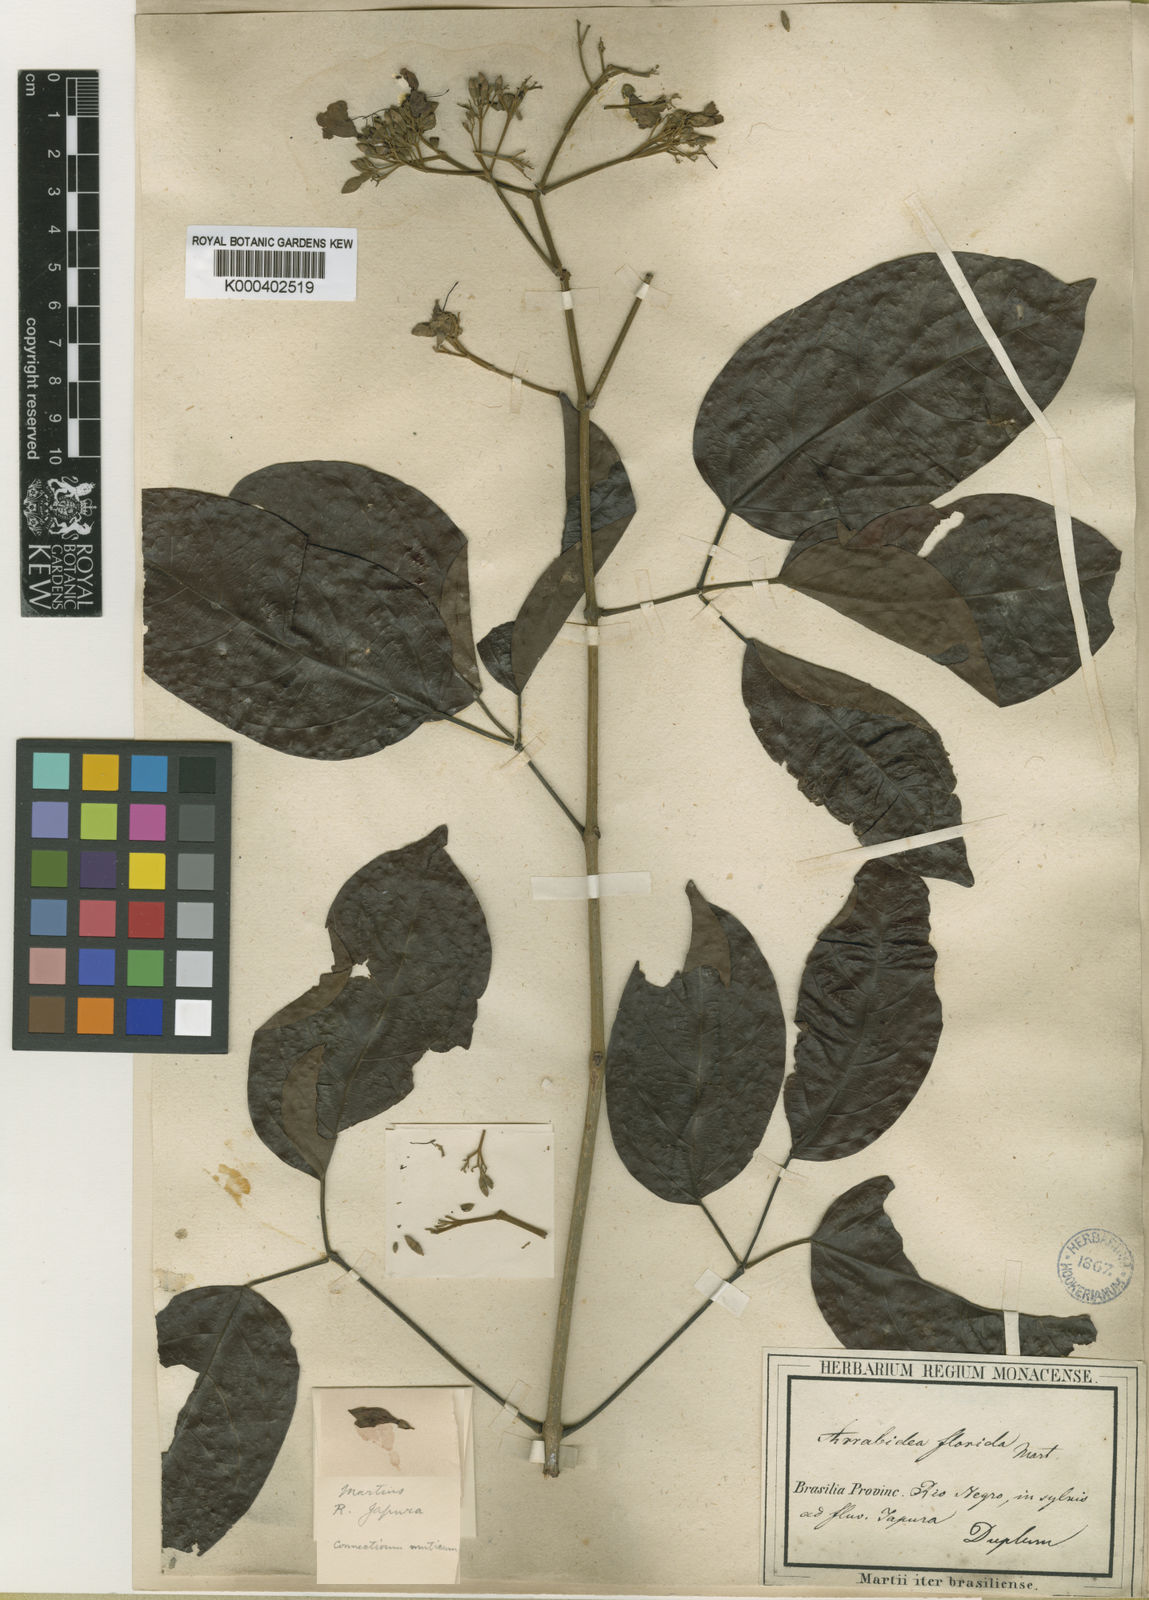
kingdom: Plantae
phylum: Tracheophyta
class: Magnoliopsida
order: Lamiales
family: Bignoniaceae
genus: Fridericia
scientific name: Fridericia florida
